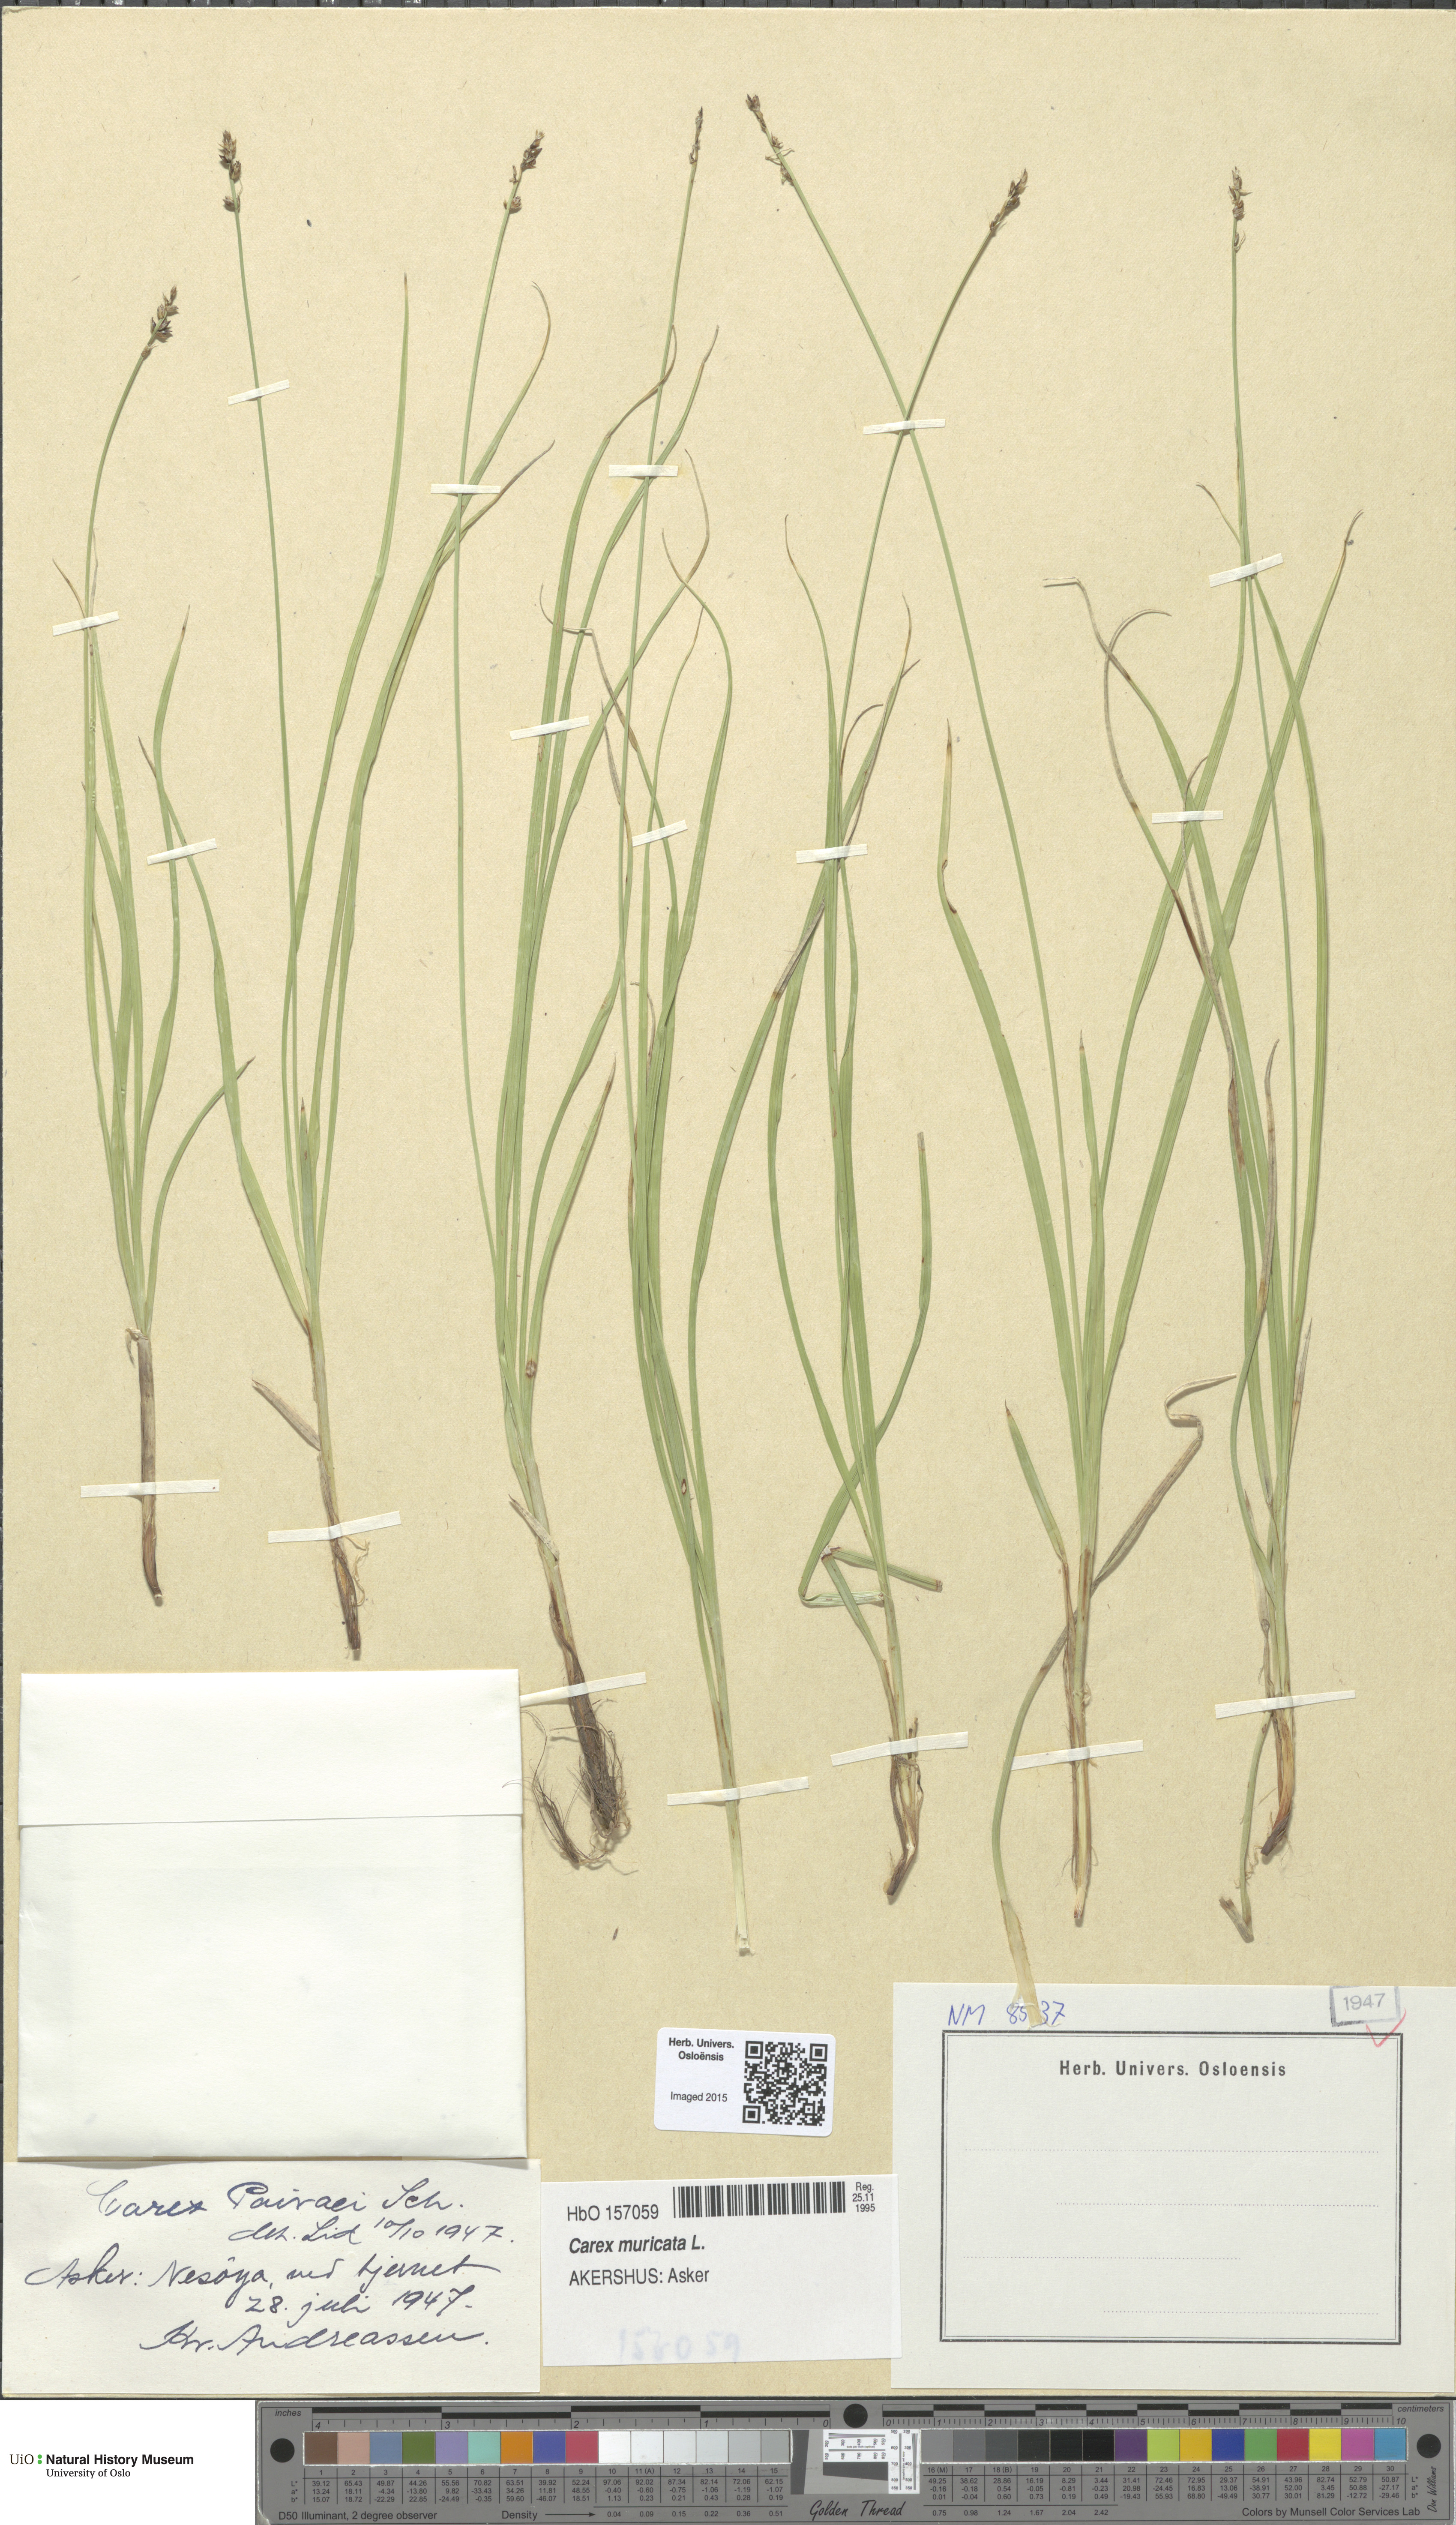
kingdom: Plantae
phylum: Tracheophyta
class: Liliopsida
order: Poales
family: Cyperaceae
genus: Carex
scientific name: Carex pairae
